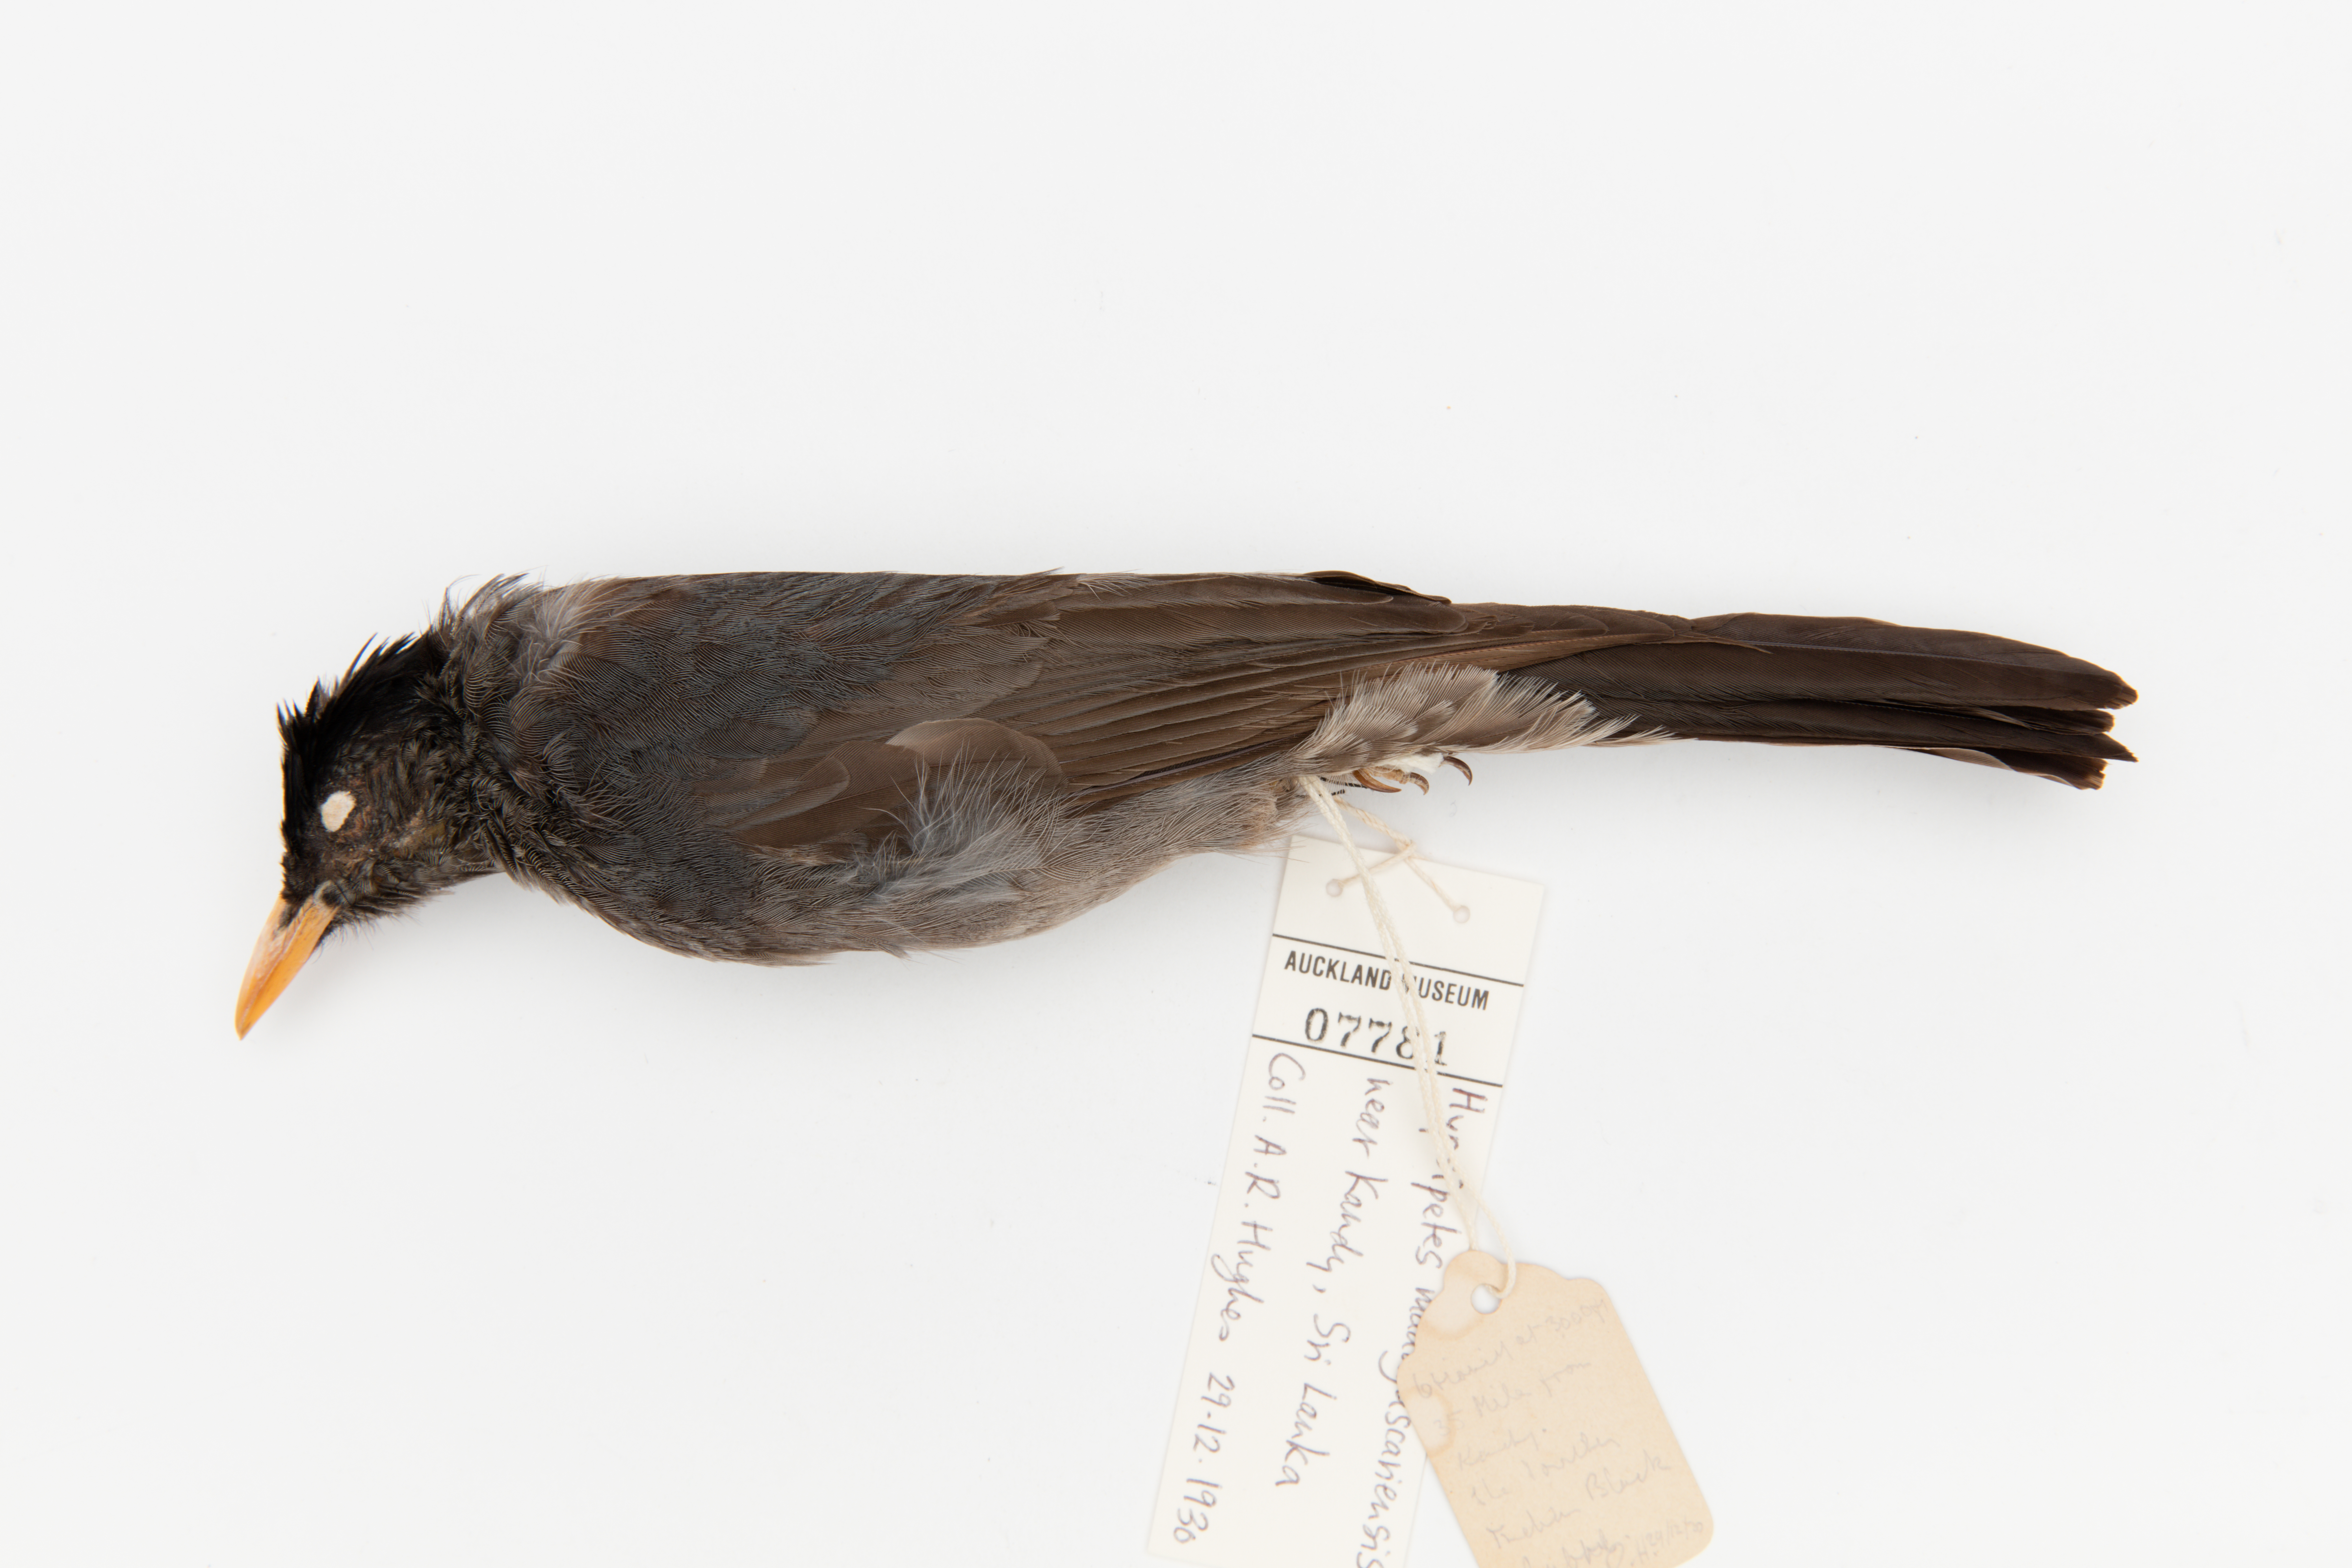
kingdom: Animalia
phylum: Chordata
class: Aves
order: Passeriformes
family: Pycnonotidae
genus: Hypsipetes
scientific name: Hypsipetes madagascariensis
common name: Malagasy bulbul
